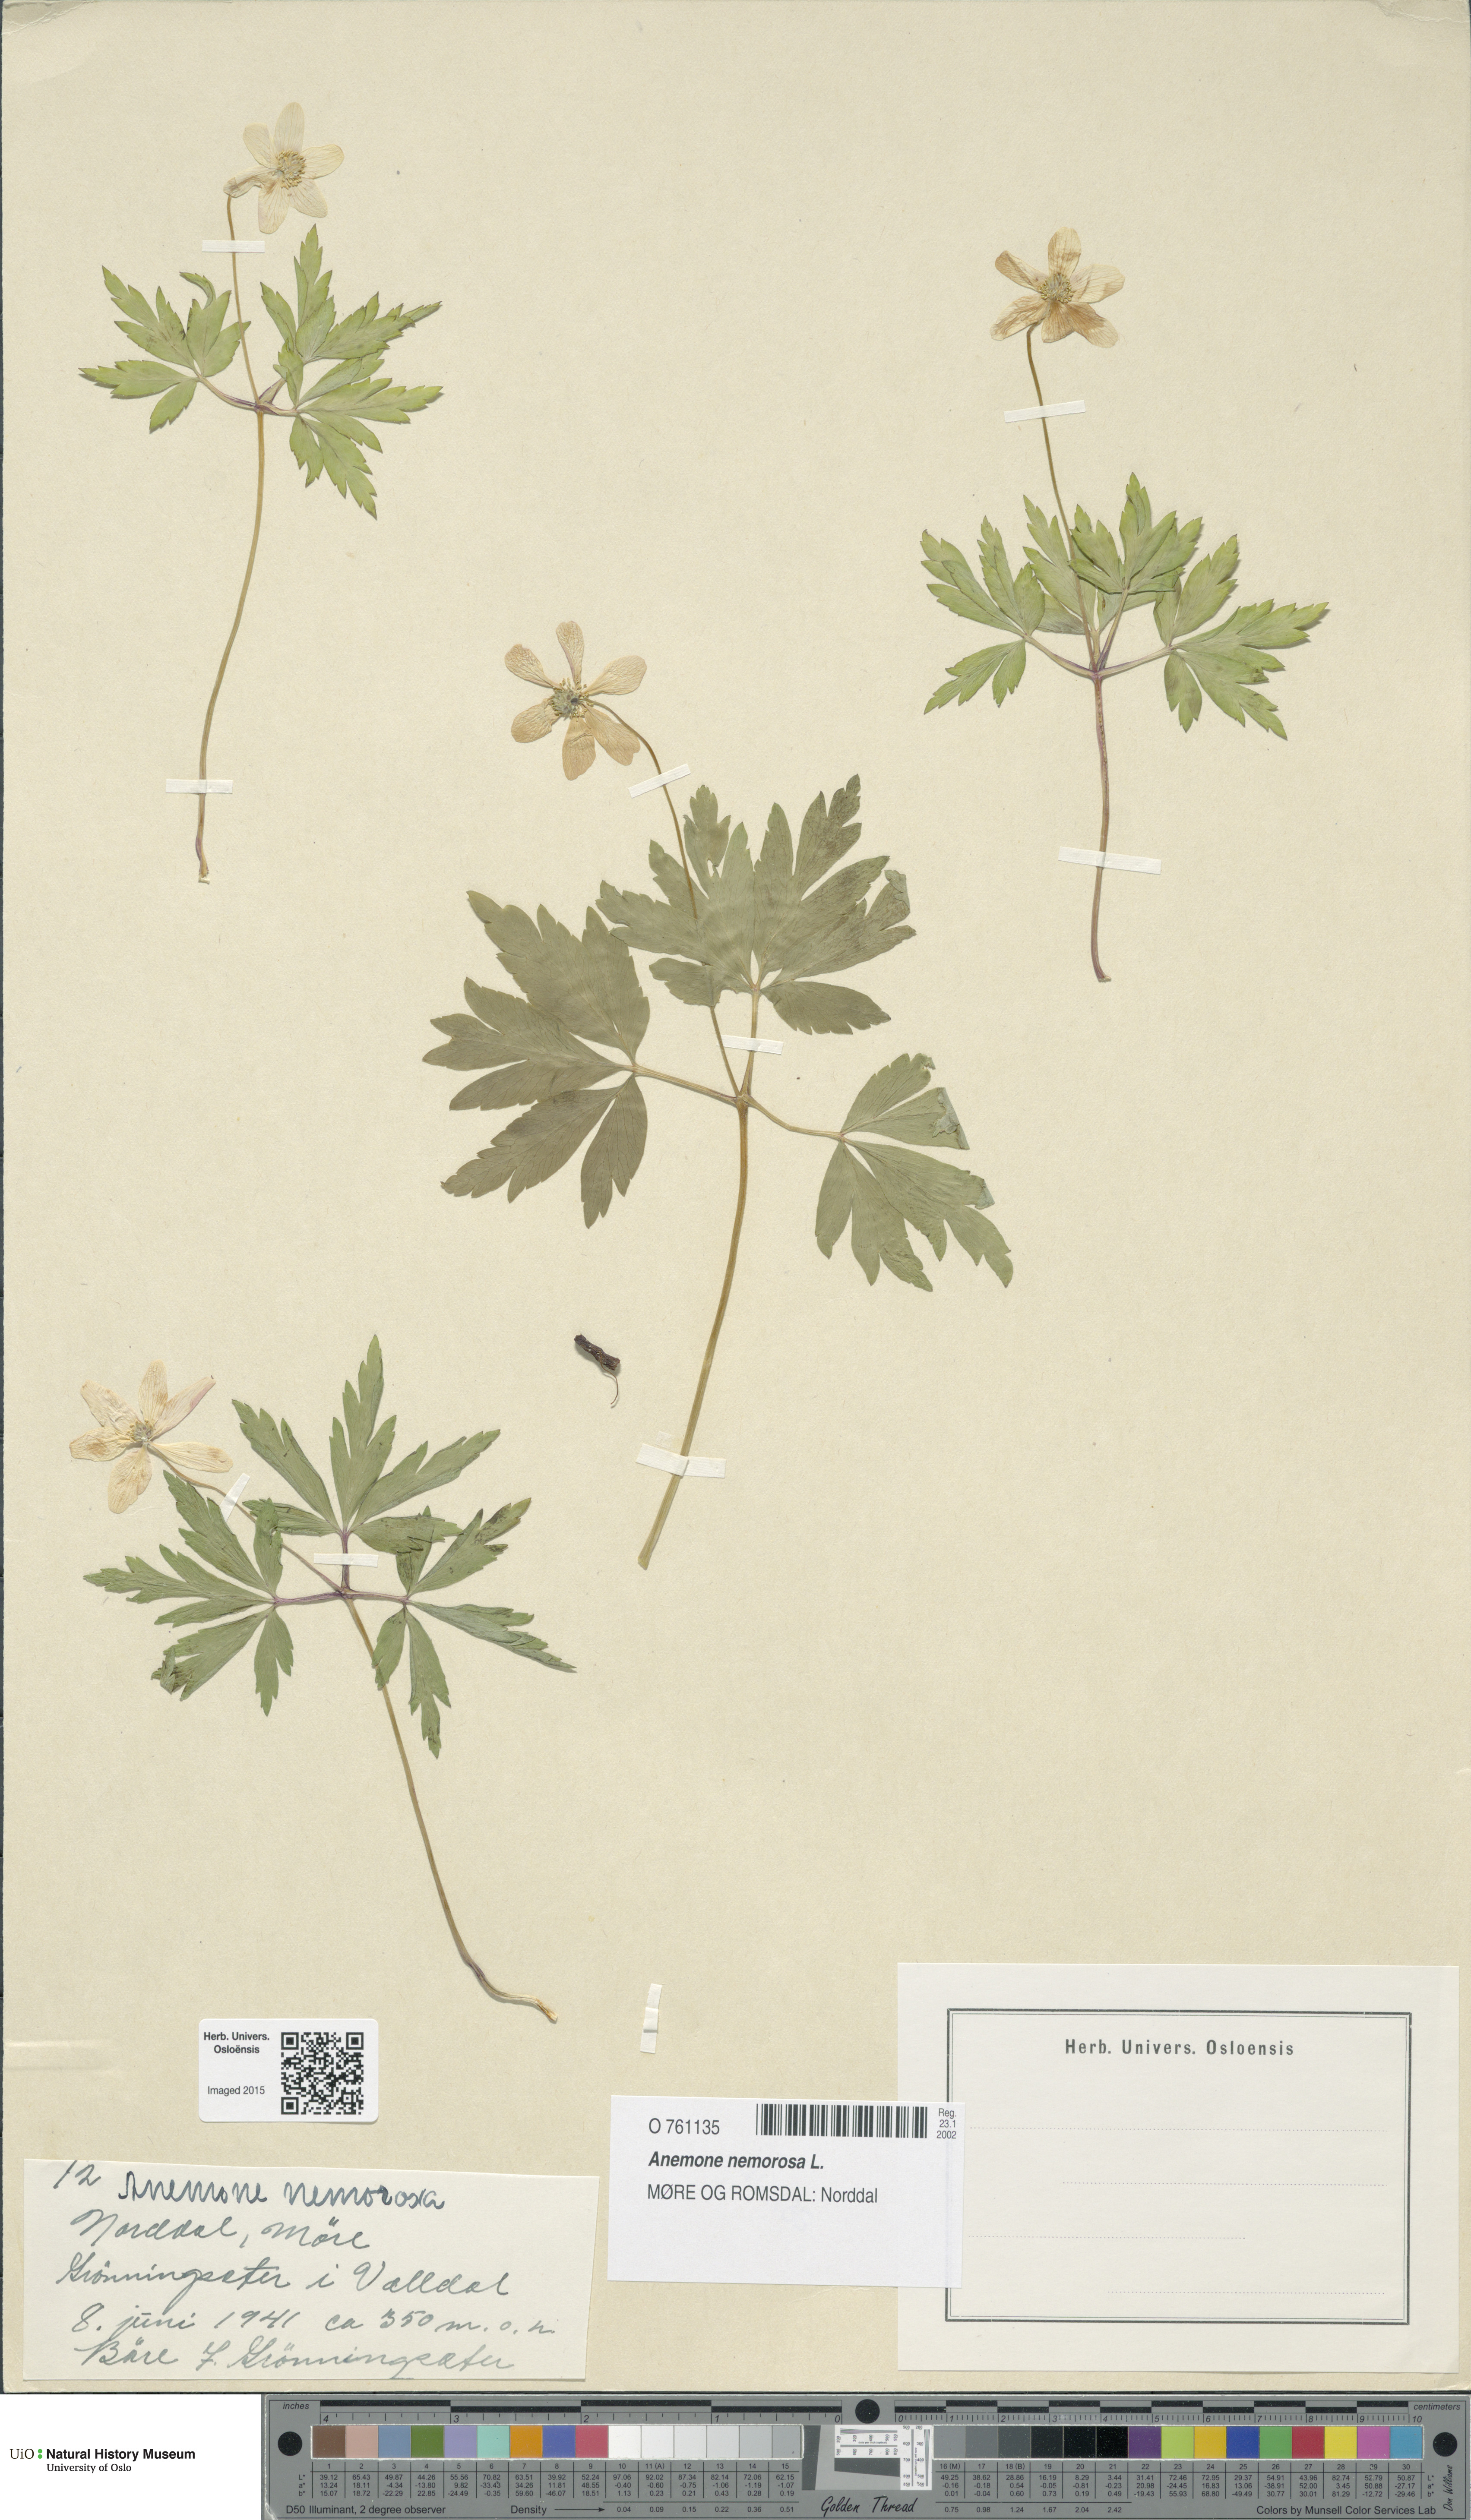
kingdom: Plantae
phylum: Tracheophyta
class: Magnoliopsida
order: Ranunculales
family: Ranunculaceae
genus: Anemone
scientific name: Anemone nemorosa
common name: Wood anemone
